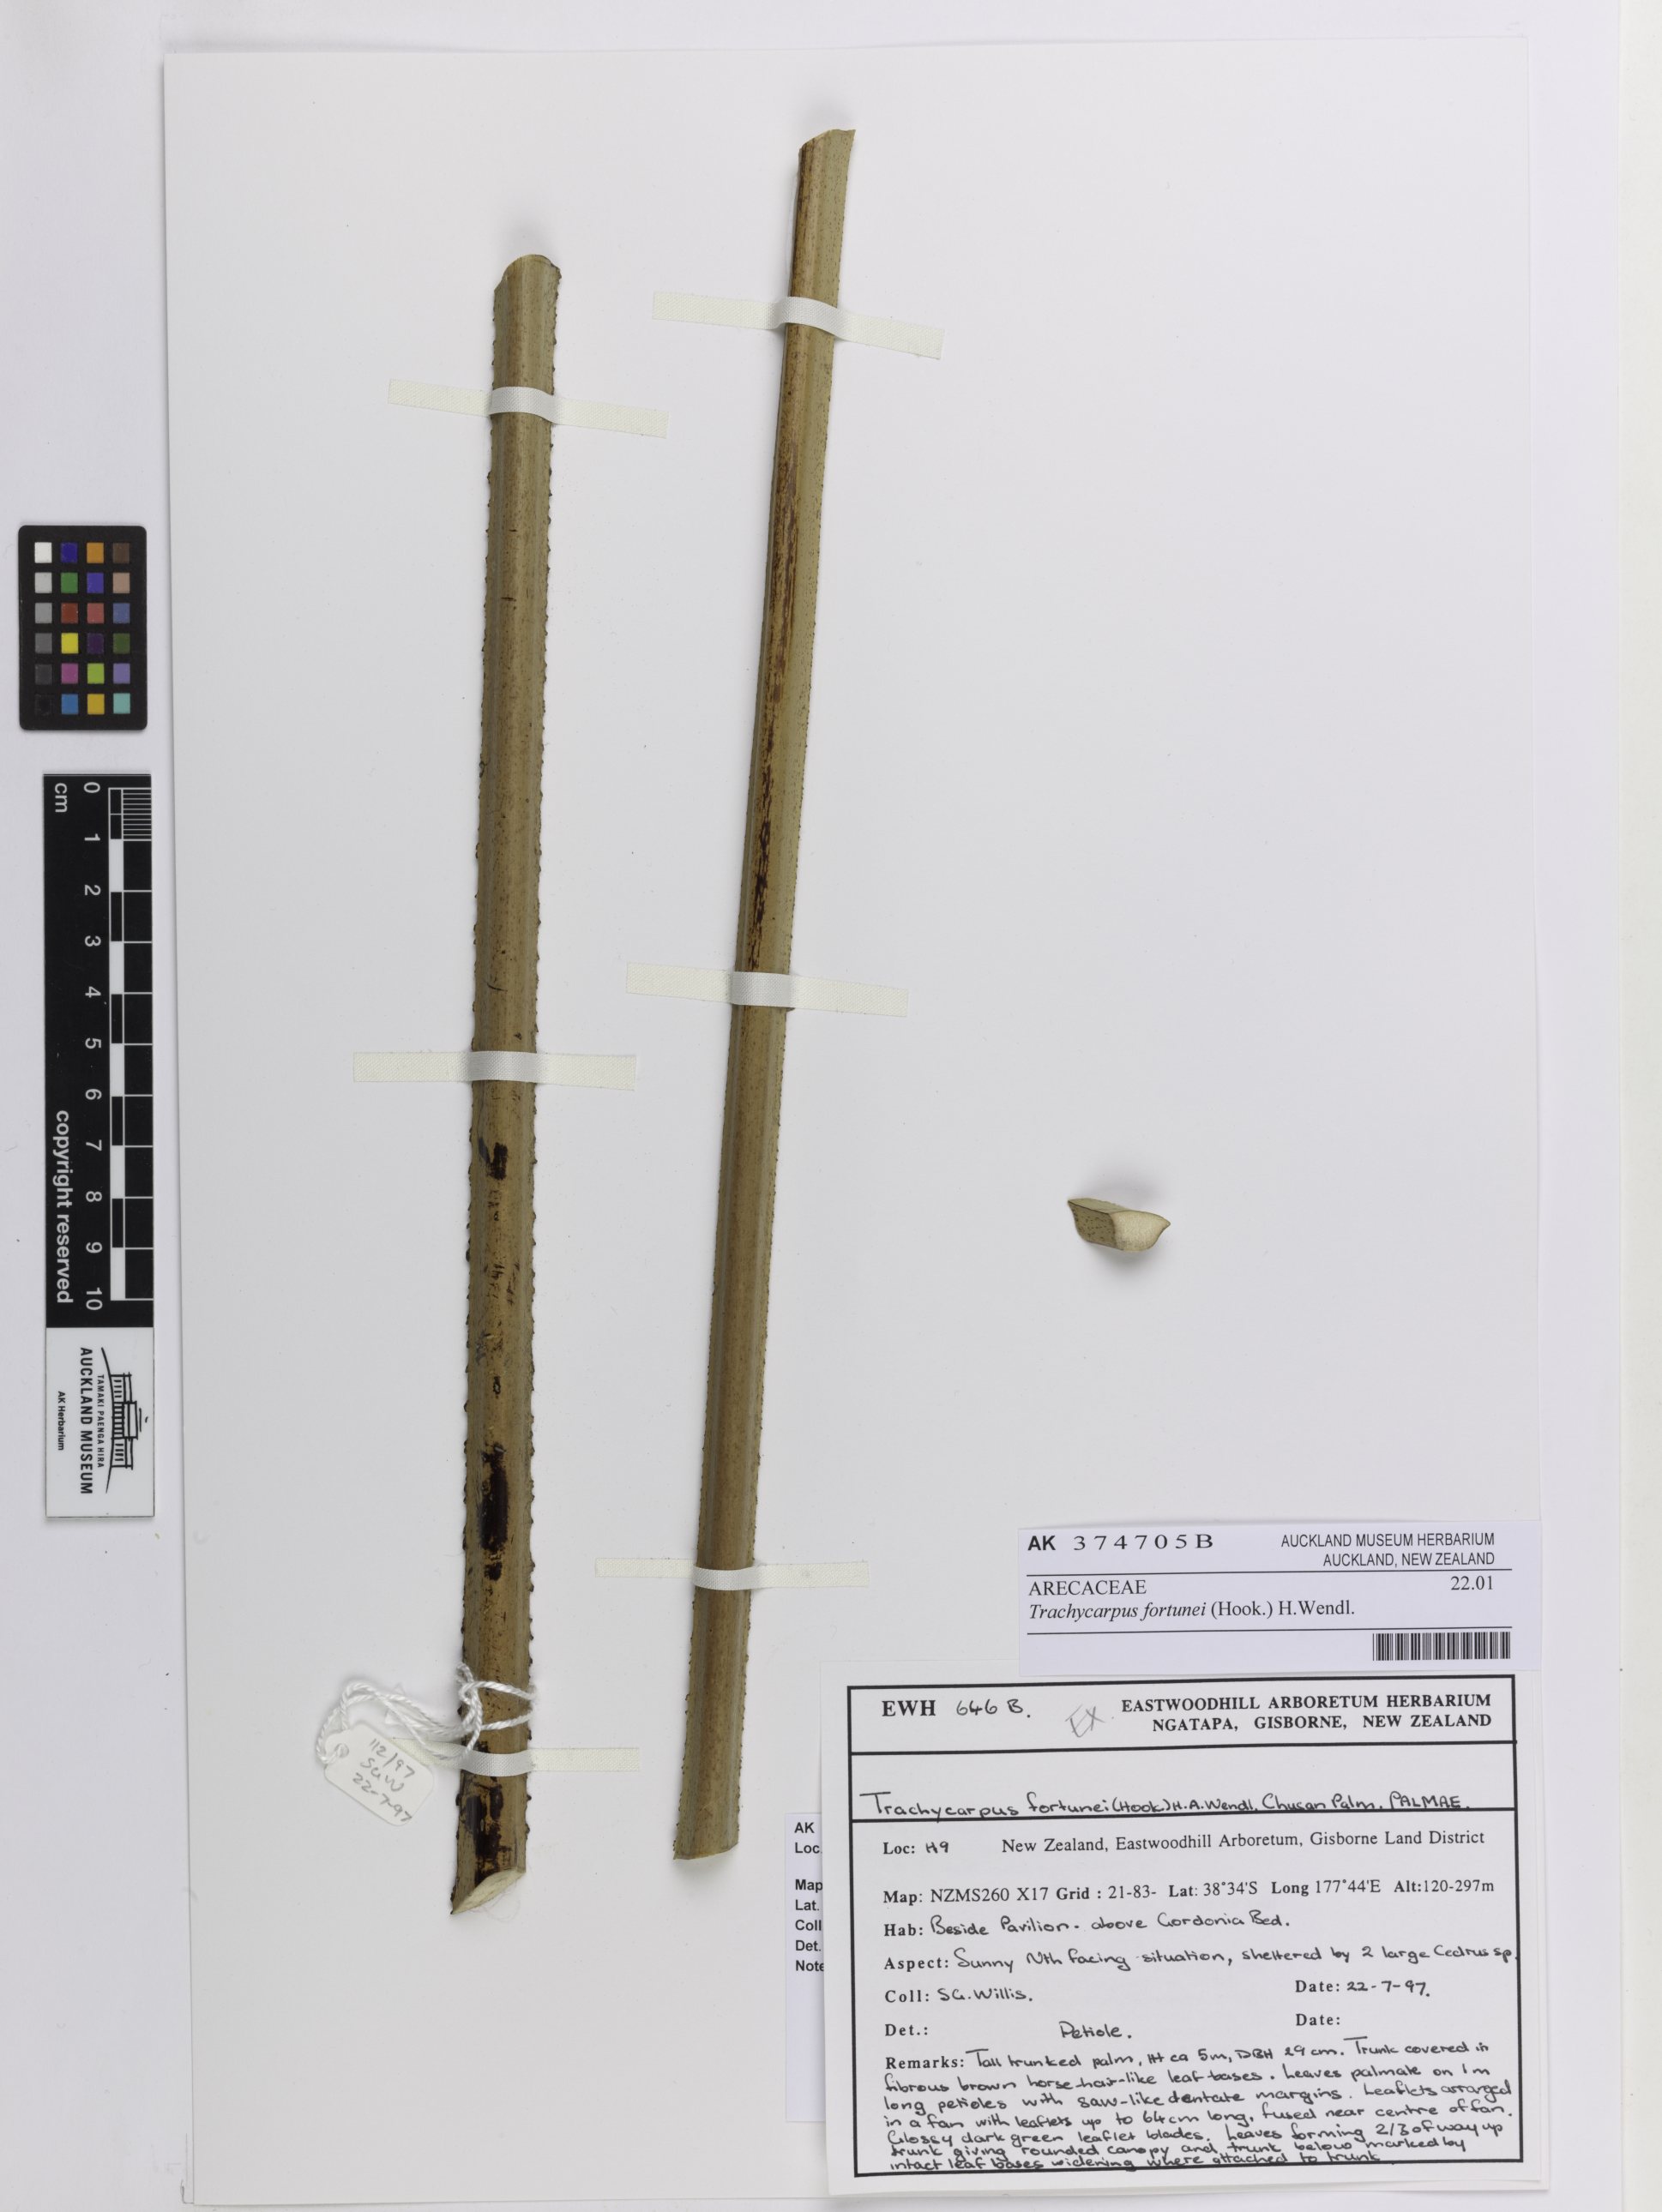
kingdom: Plantae
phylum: Tracheophyta
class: Liliopsida
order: Arecales
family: Arecaceae
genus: Trachycarpus
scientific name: Trachycarpus fortunei
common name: Chusan palm
